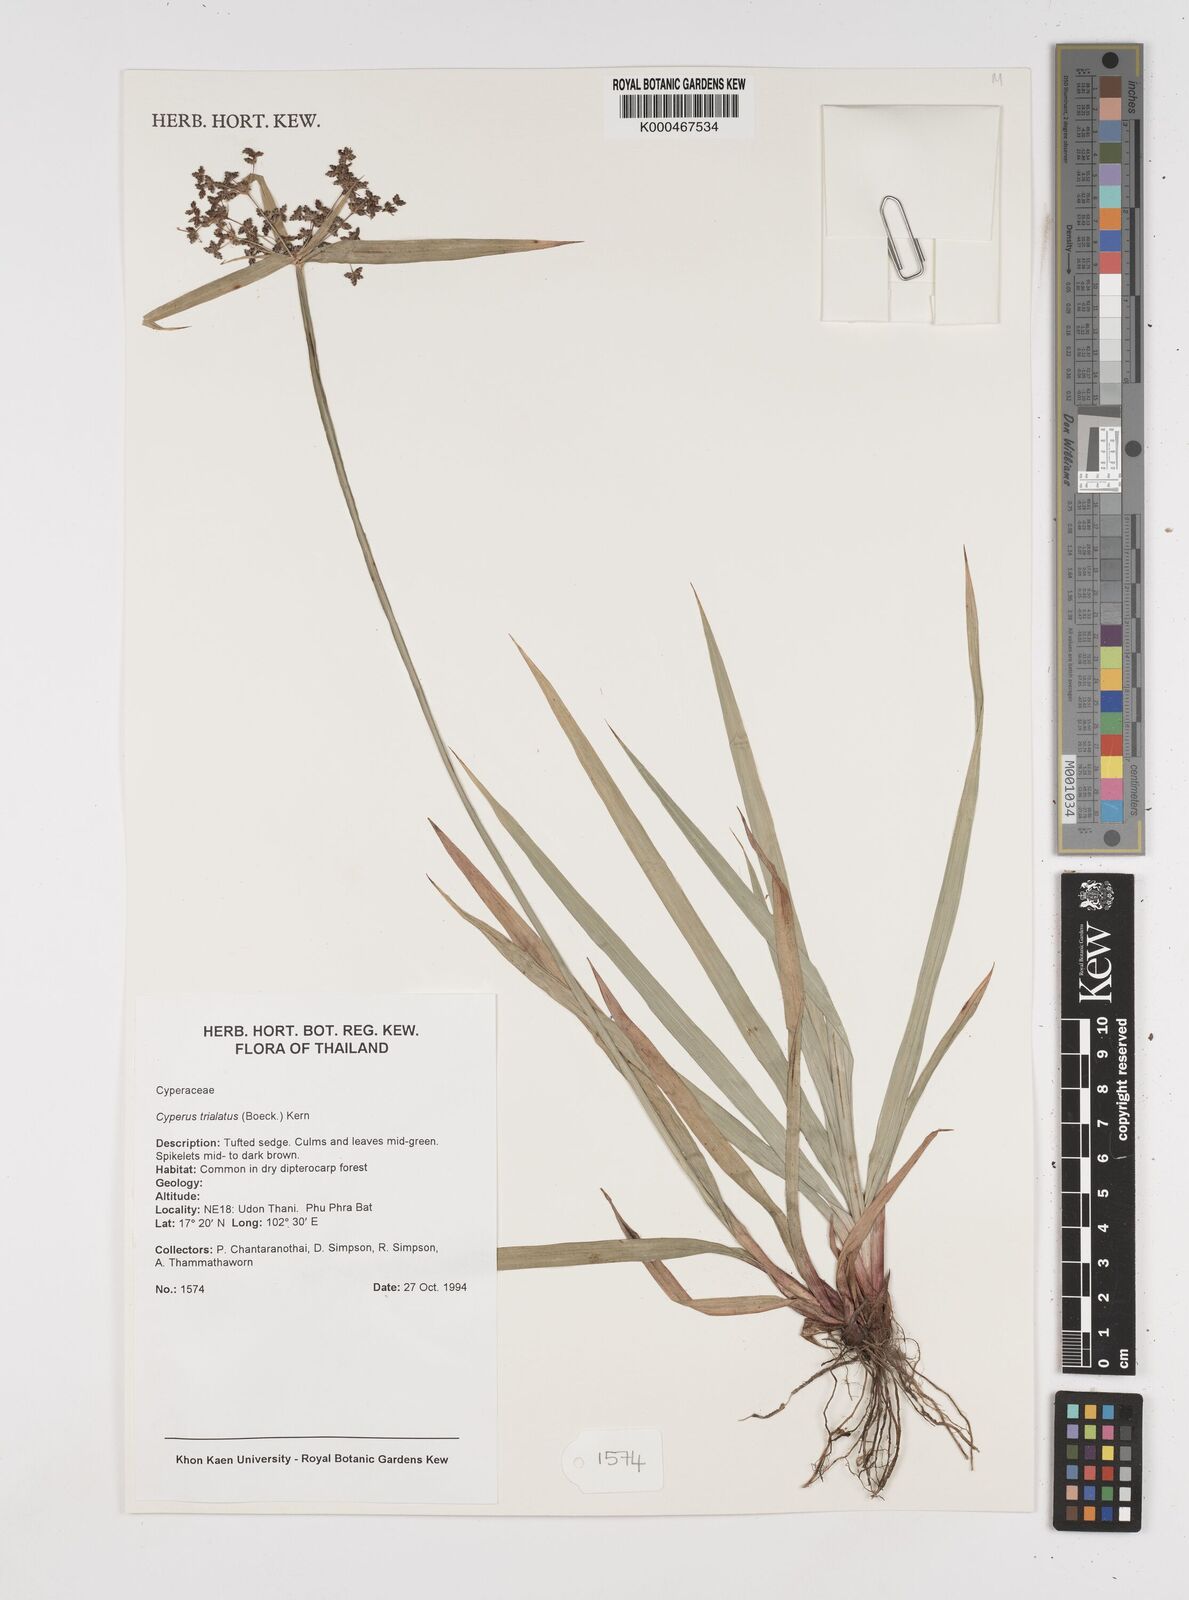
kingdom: Plantae
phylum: Tracheophyta
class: Liliopsida
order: Poales
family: Cyperaceae
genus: Cyperus
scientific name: Cyperus trialatus
